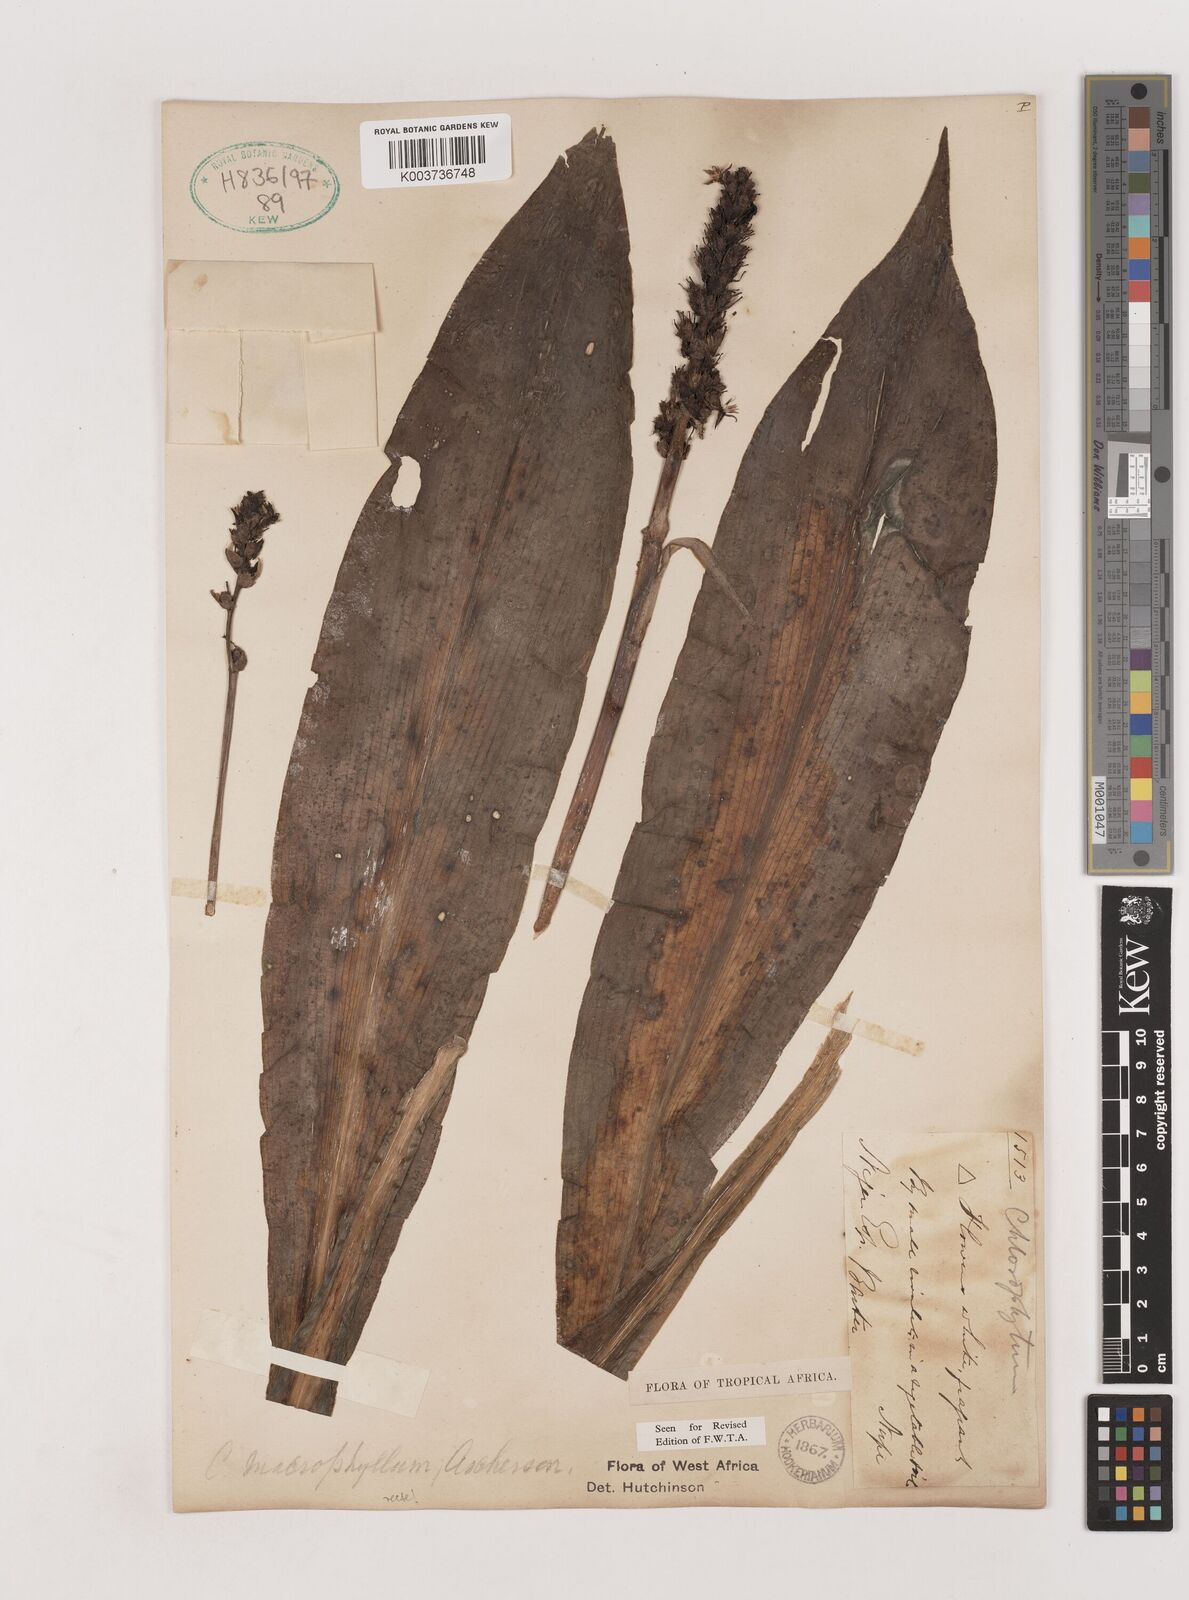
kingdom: Plantae
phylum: Tracheophyta
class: Liliopsida
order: Asparagales
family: Asparagaceae
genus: Chlorophytum
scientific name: Chlorophytum macrophyllum
